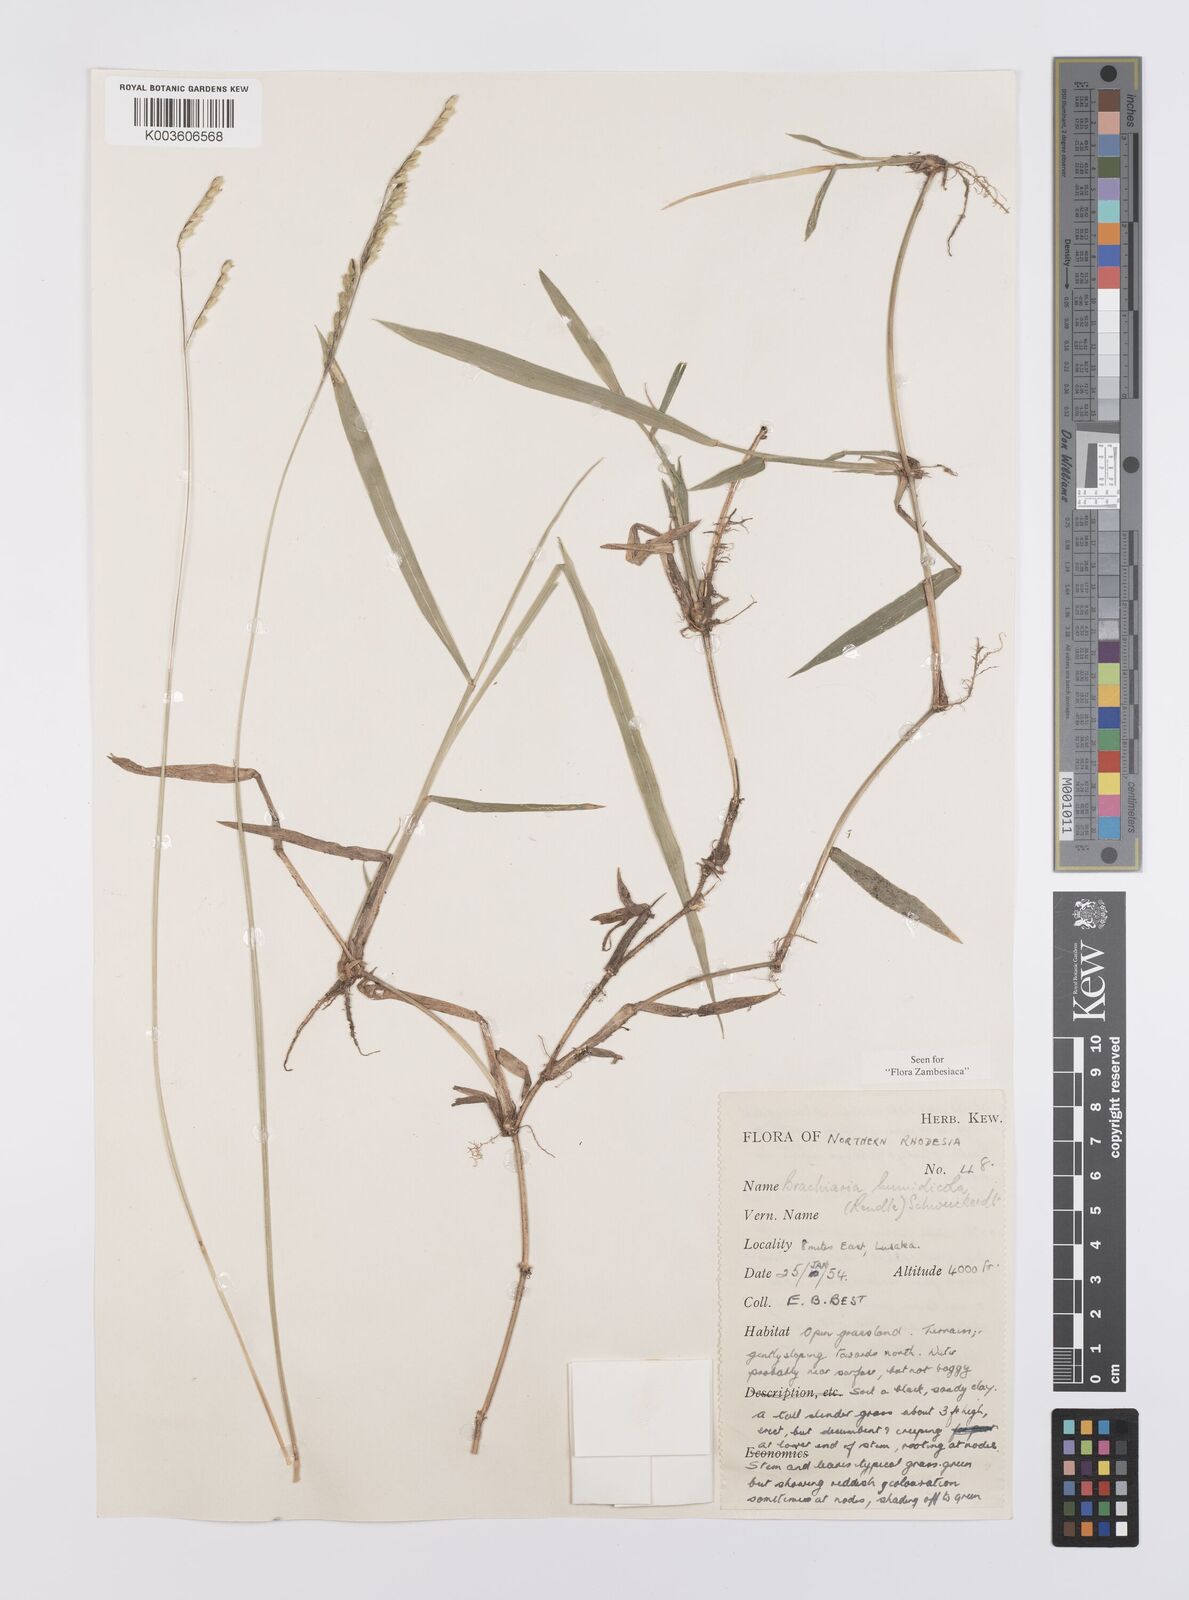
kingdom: Plantae
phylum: Tracheophyta
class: Liliopsida
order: Poales
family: Poaceae
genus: Urochloa
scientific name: Urochloa dictyoneura
